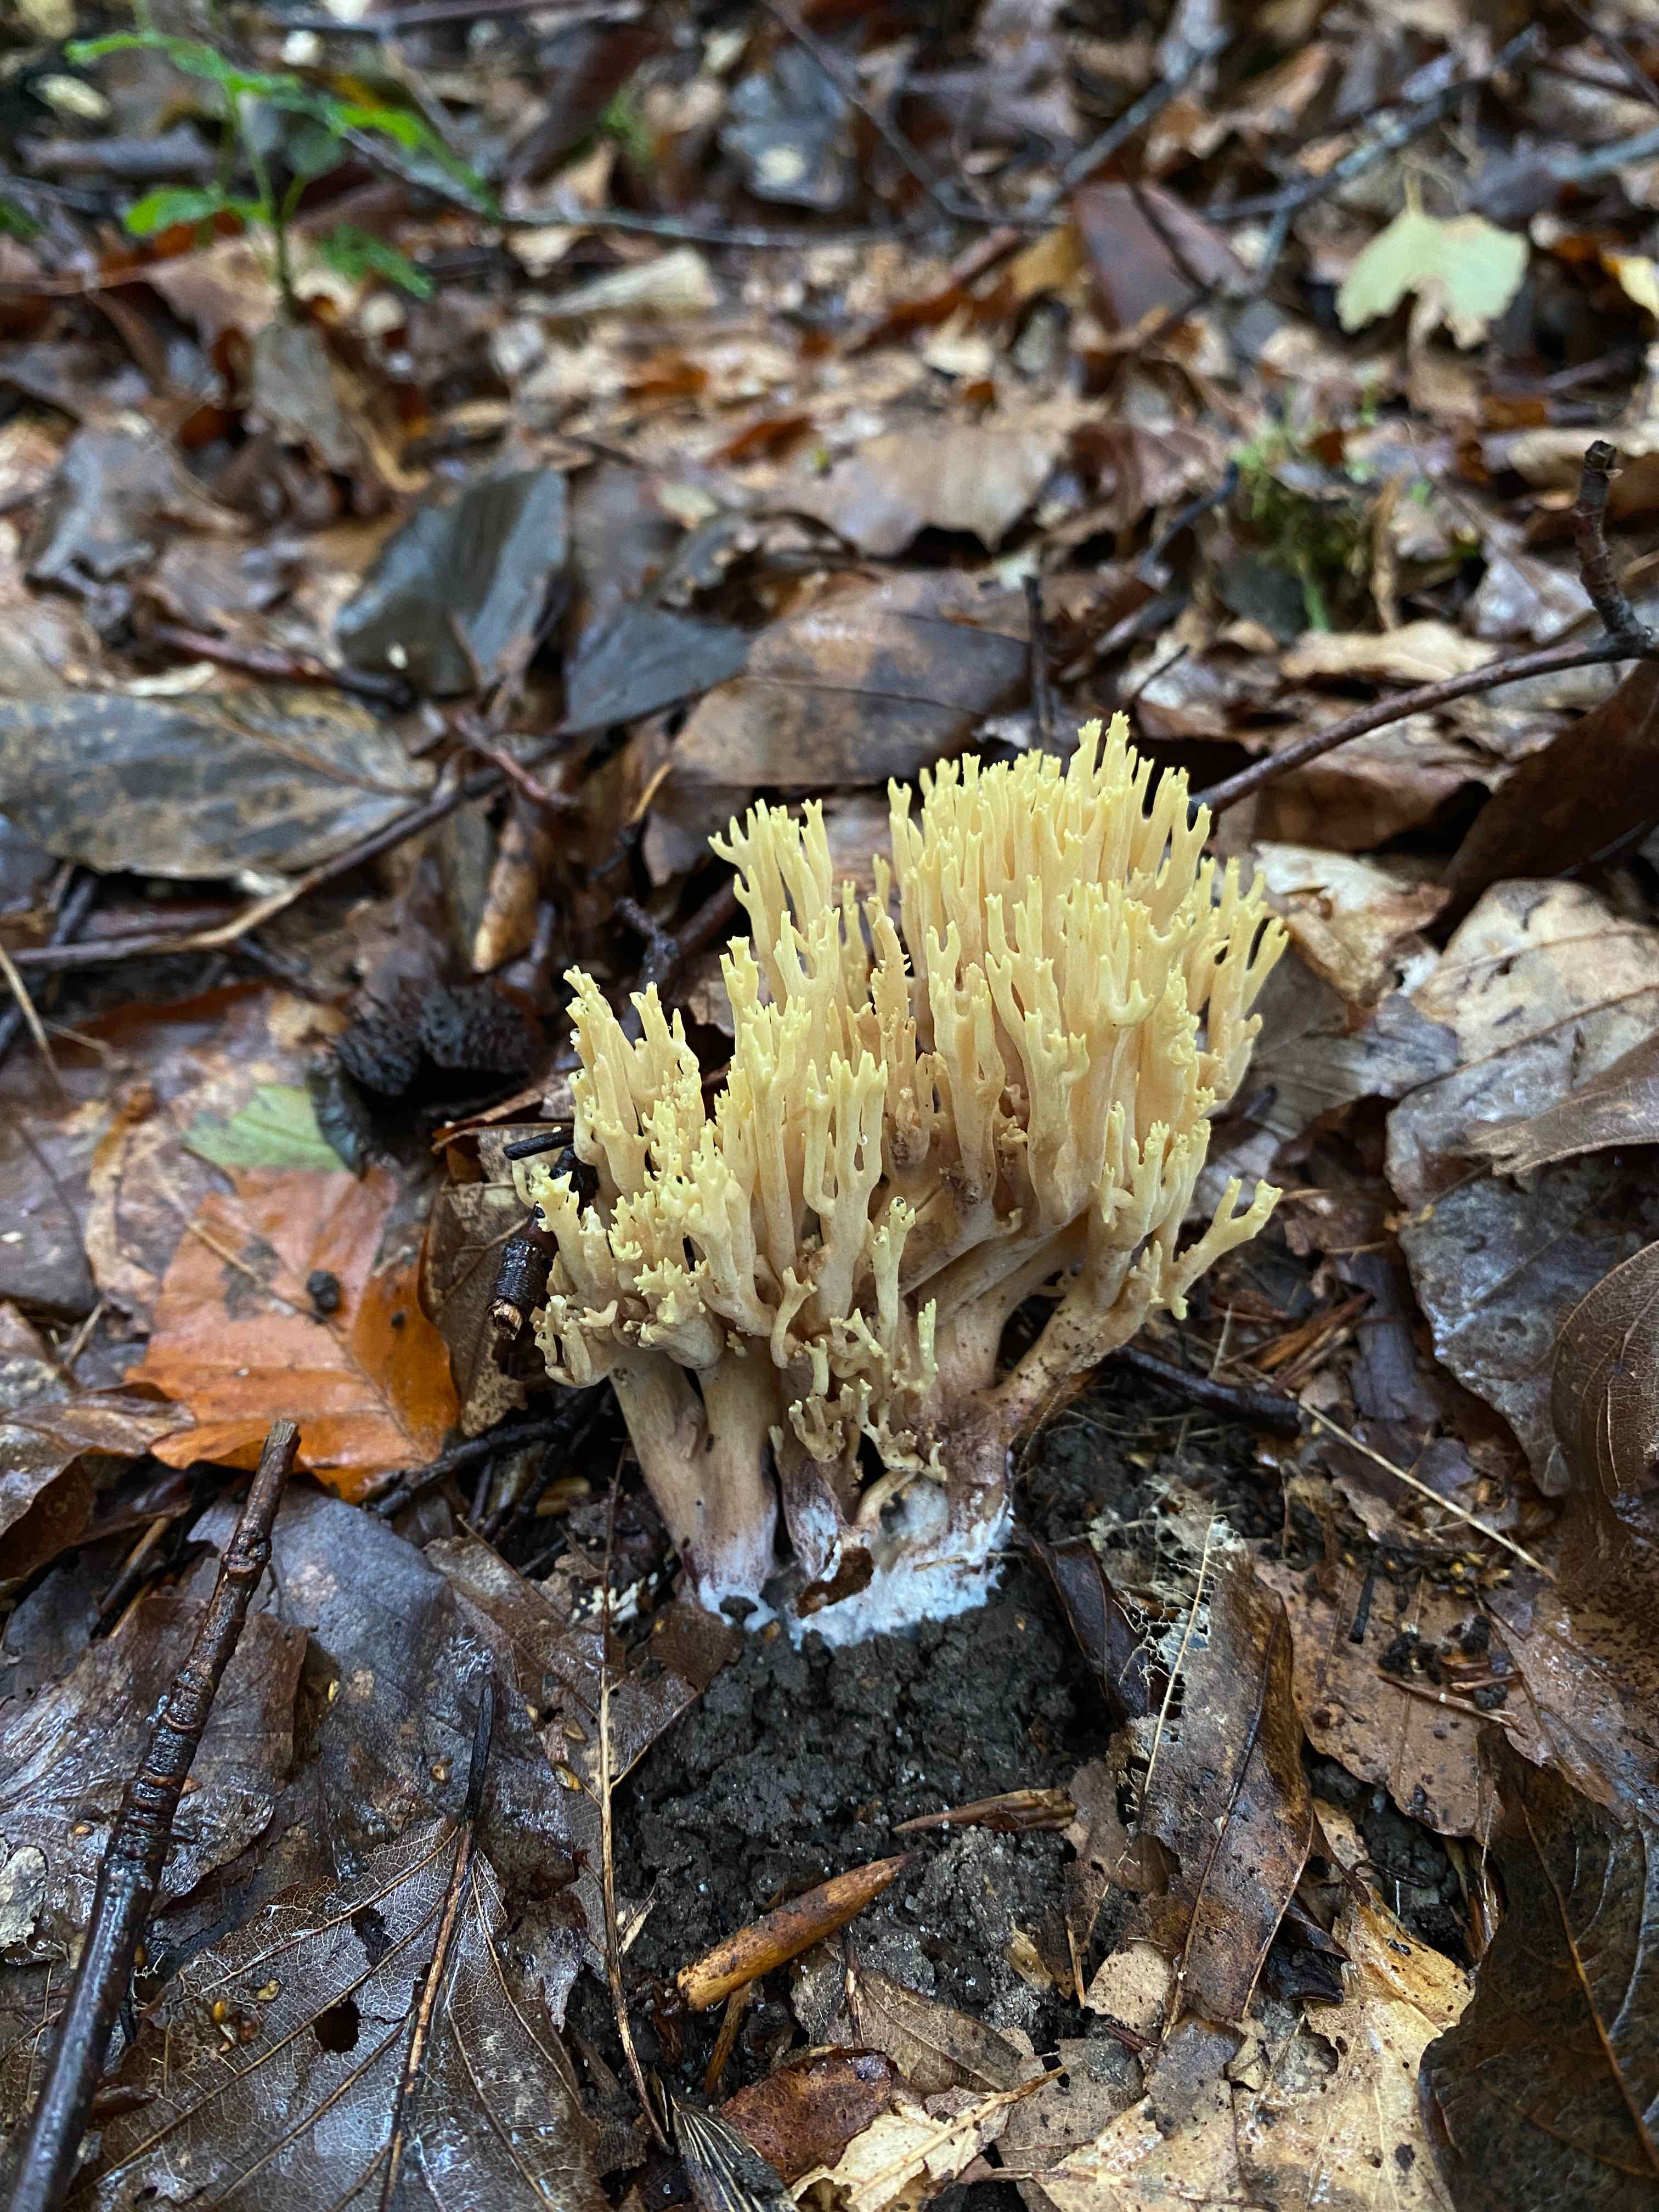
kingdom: Fungi
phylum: Basidiomycota
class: Agaricomycetes
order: Gomphales
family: Gomphaceae
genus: Ramaria
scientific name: Ramaria stricta
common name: rank koralsvamp
